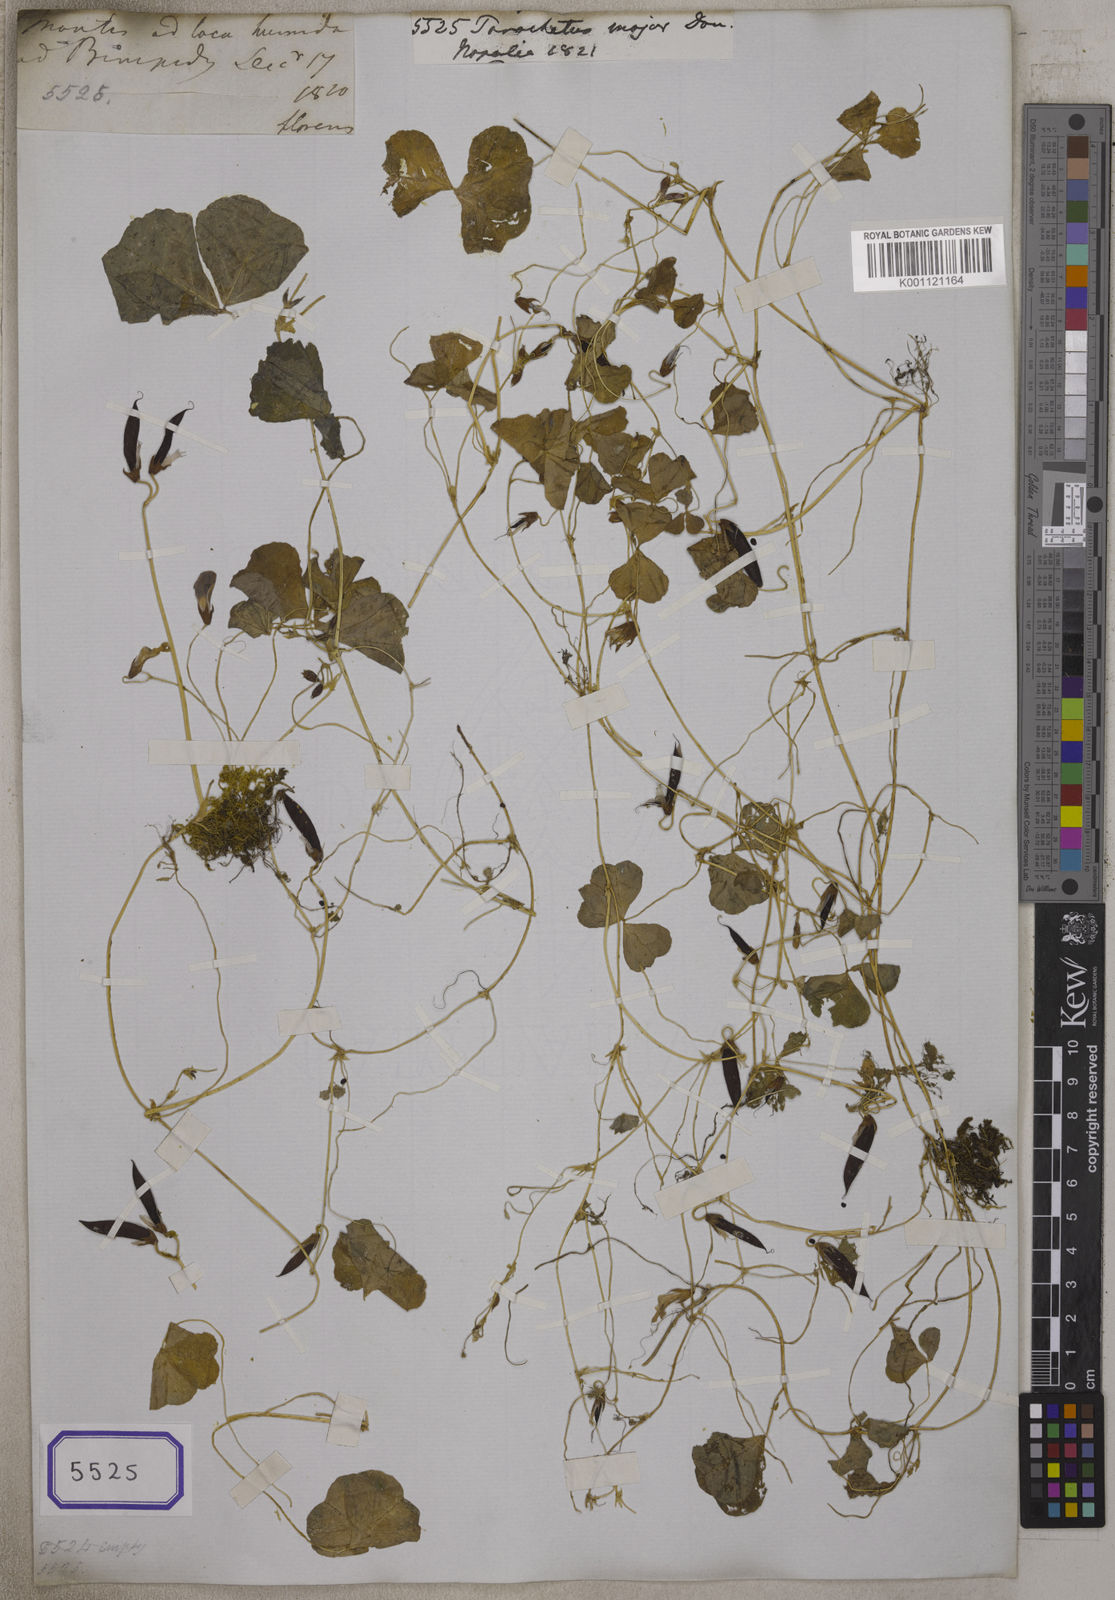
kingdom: Plantae
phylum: Tracheophyta
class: Magnoliopsida
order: Fabales
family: Fabaceae
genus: Parochetus
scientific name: Parochetus
